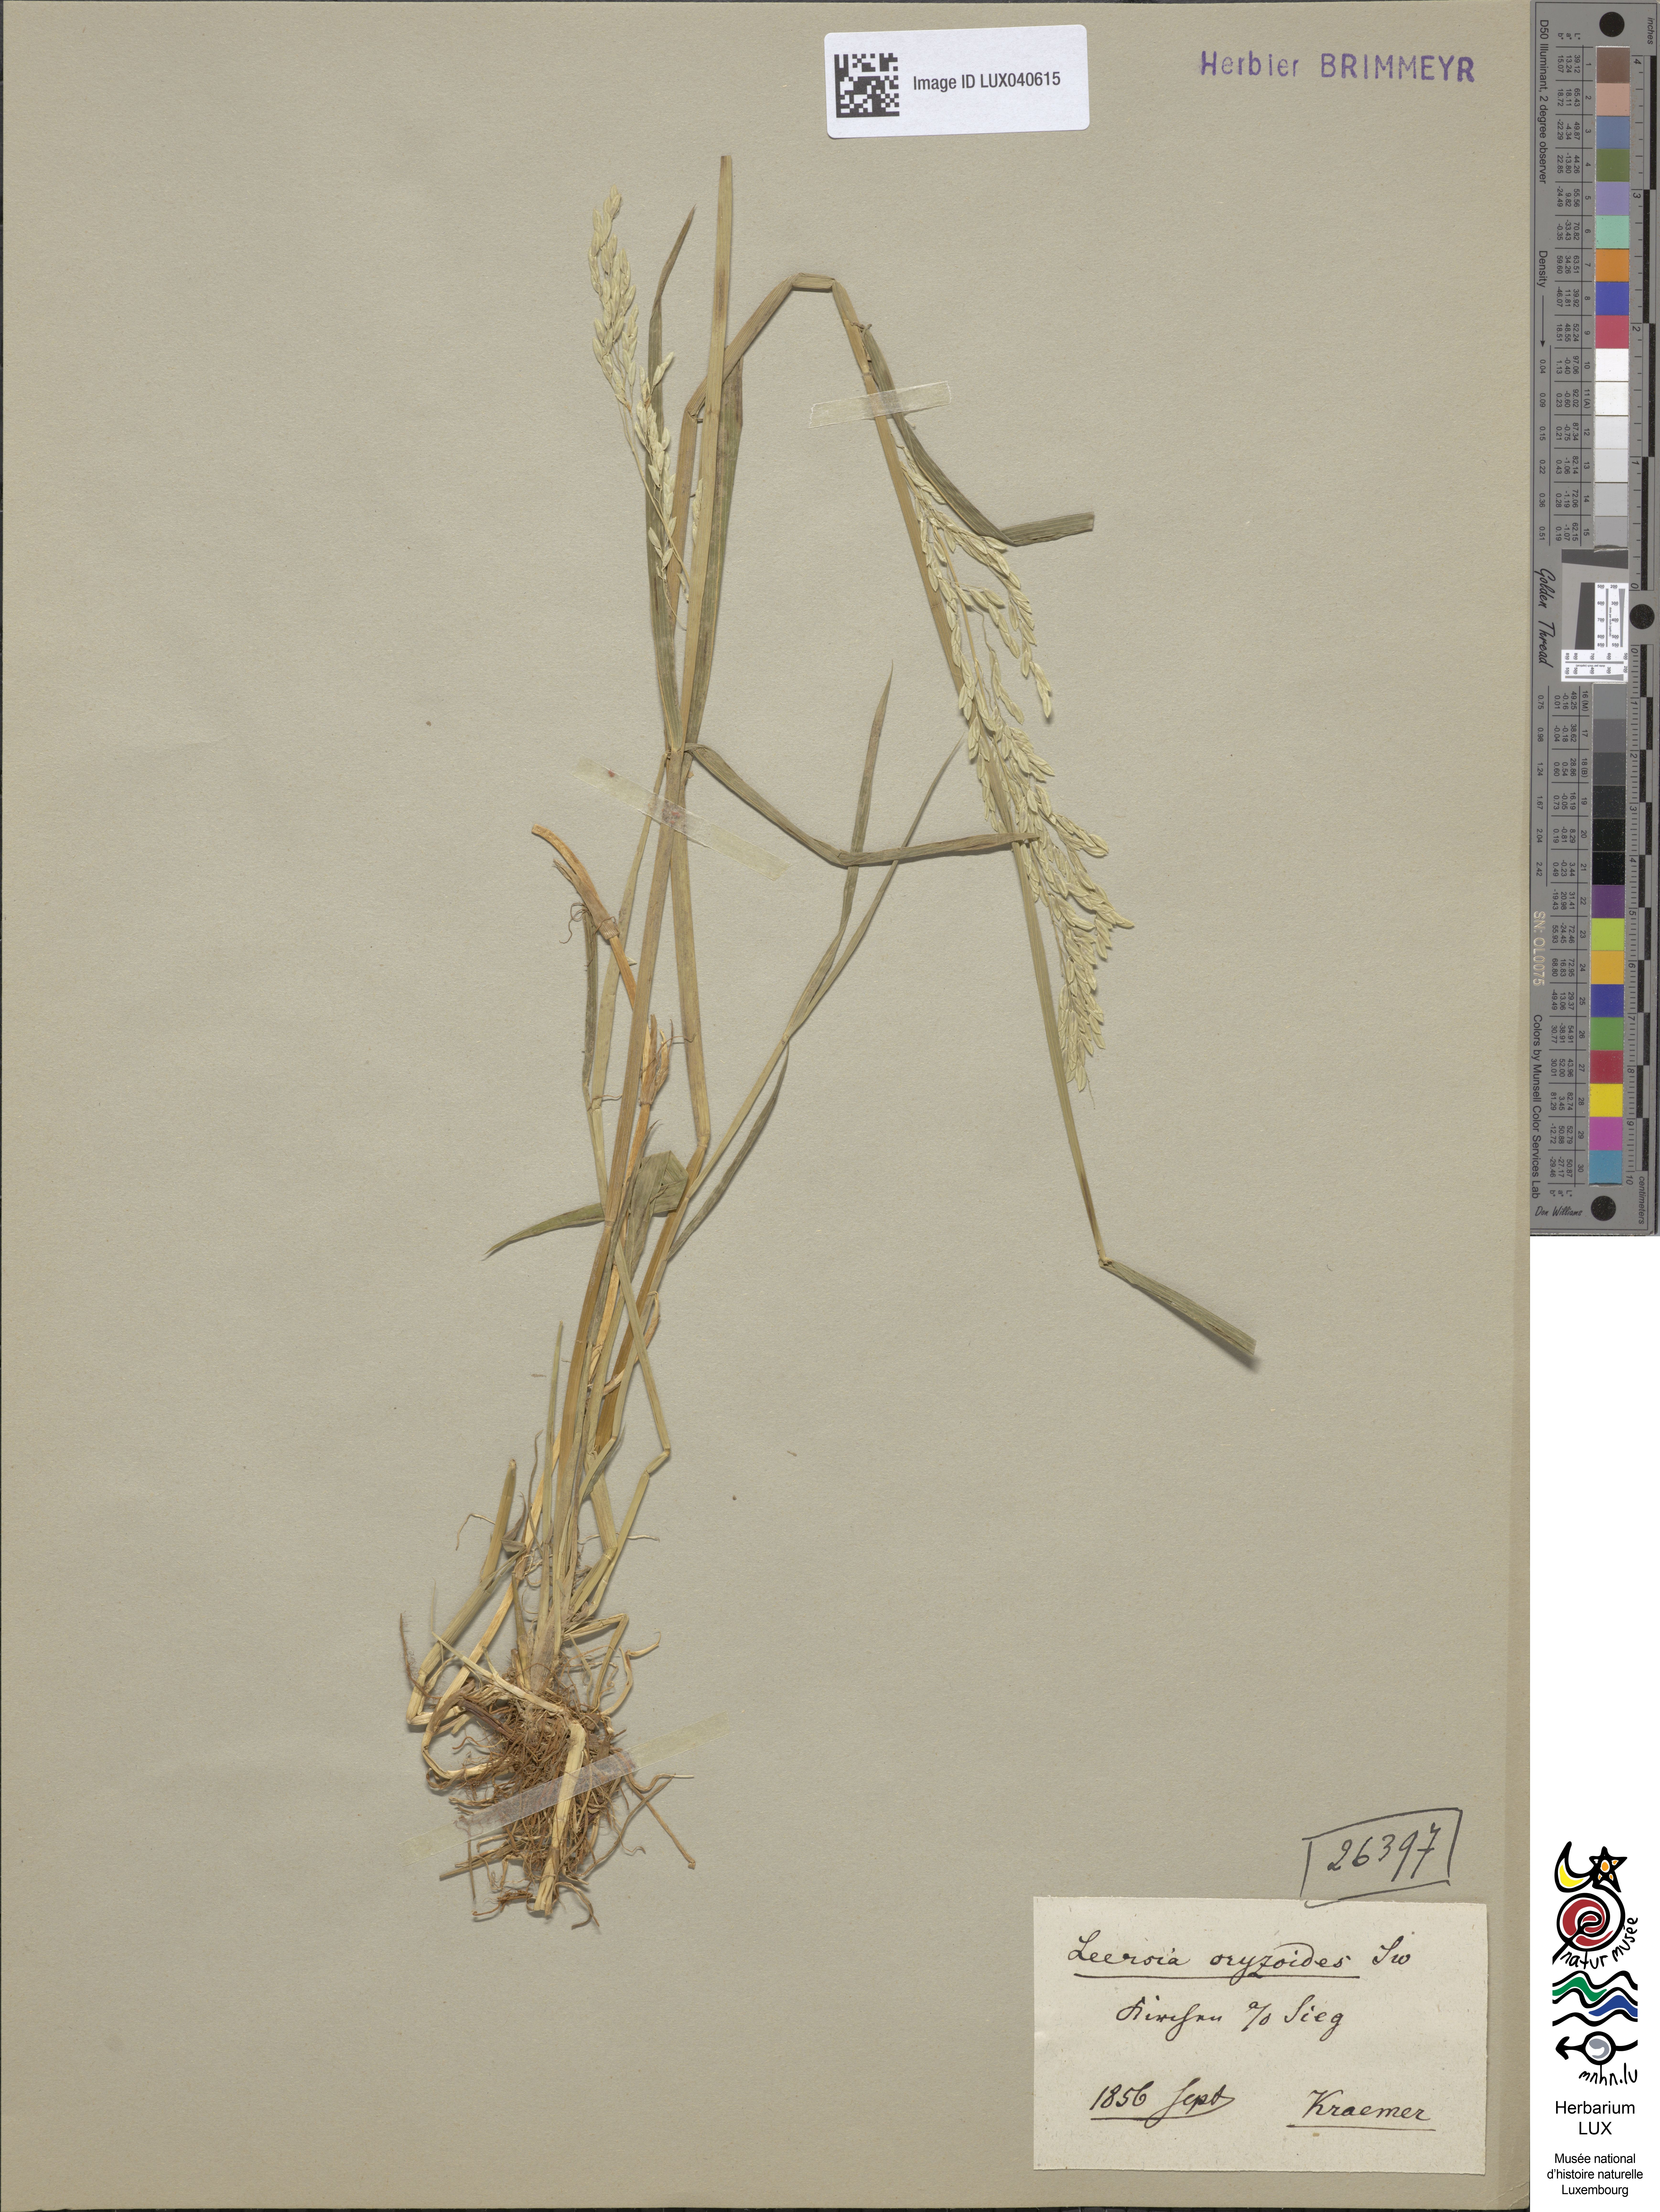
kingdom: Plantae
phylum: Tracheophyta
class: Liliopsida
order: Poales
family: Poaceae
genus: Leersia
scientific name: Leersia oryzoides
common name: Cut-grass
